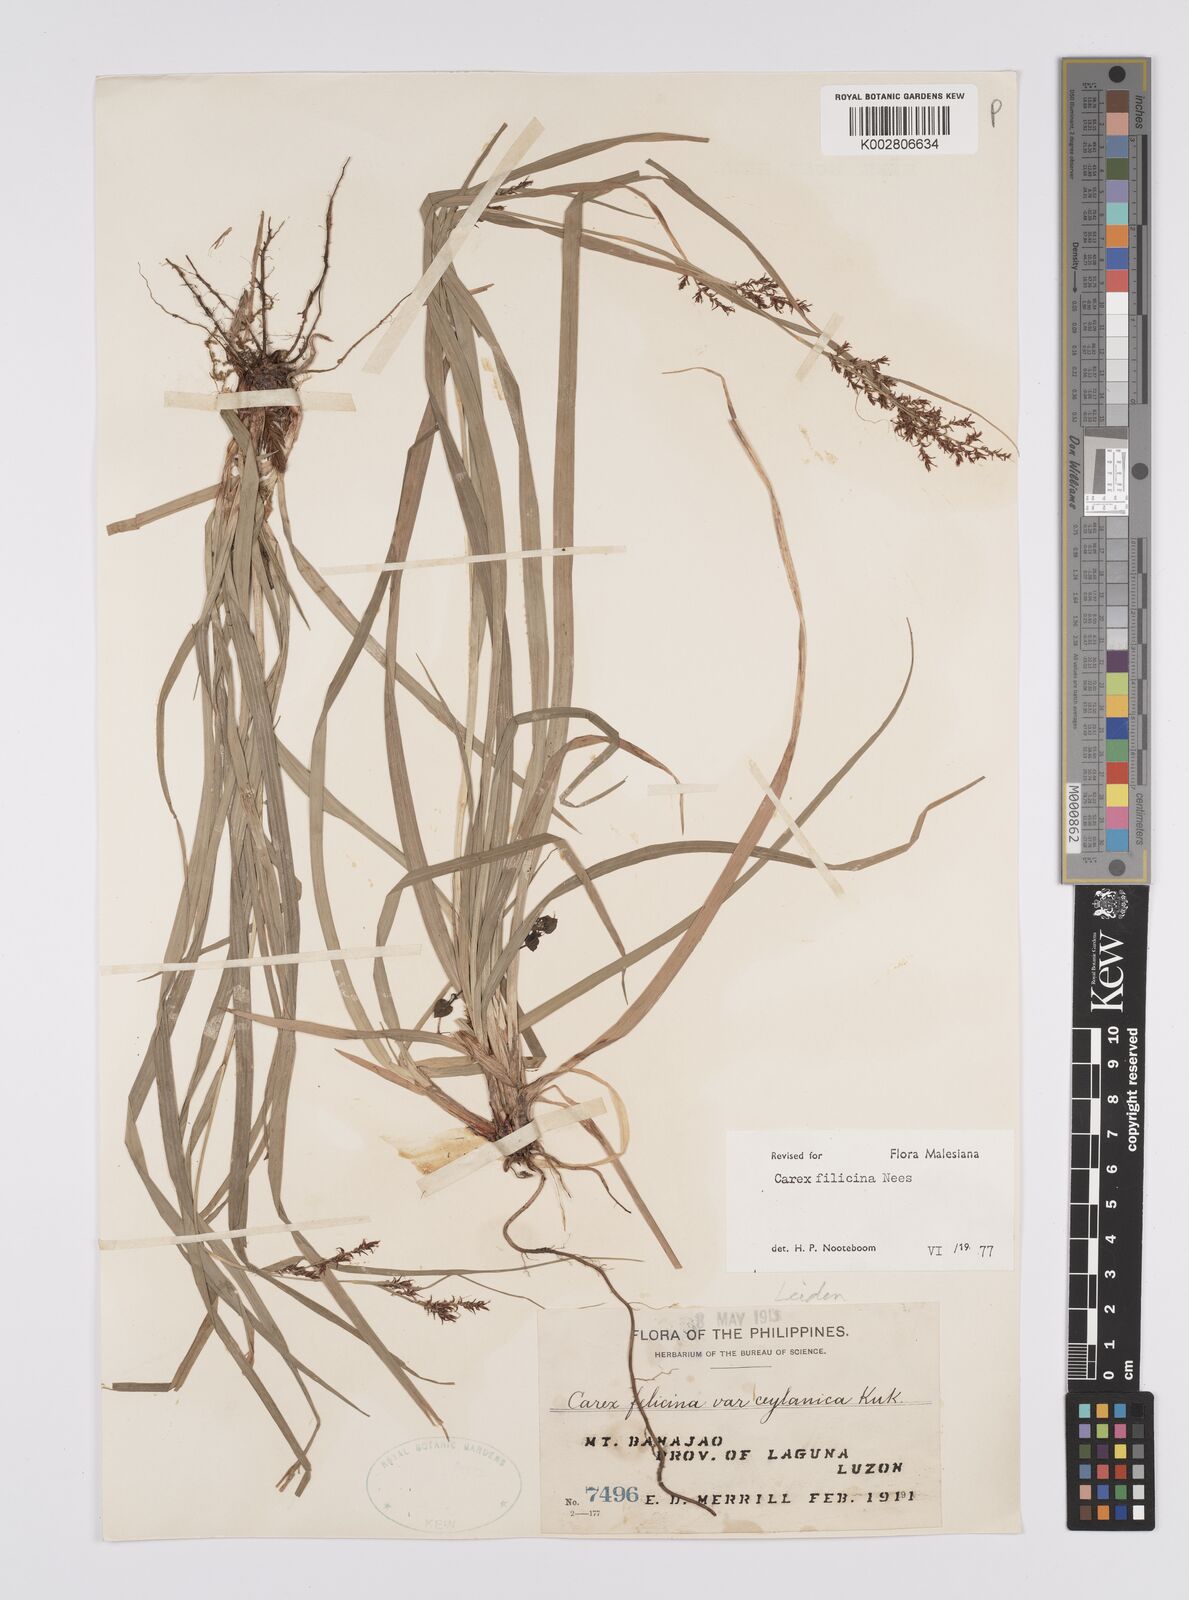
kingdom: Plantae
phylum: Tracheophyta
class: Liliopsida
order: Poales
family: Cyperaceae
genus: Carex
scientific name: Carex filicina
